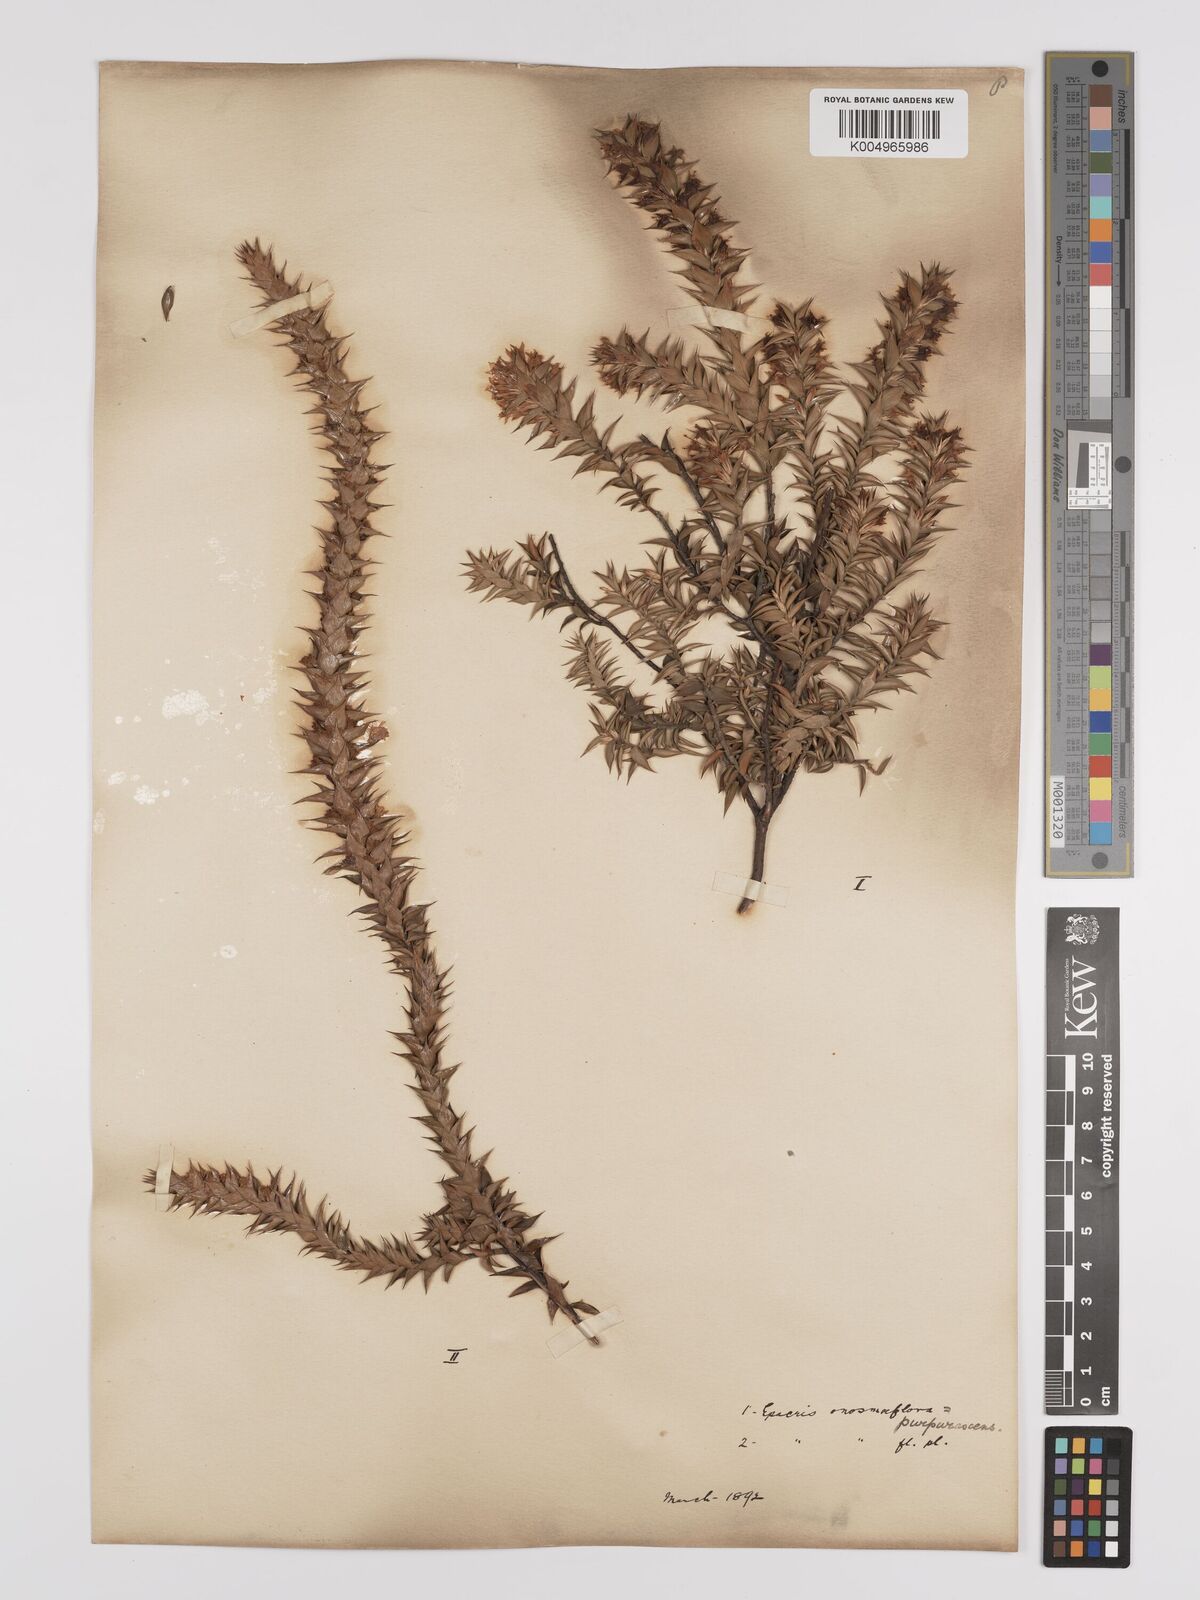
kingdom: Plantae
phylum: Tracheophyta
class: Magnoliopsida
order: Ericales
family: Ericaceae
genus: Epacris
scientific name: Epacris purpurascens
